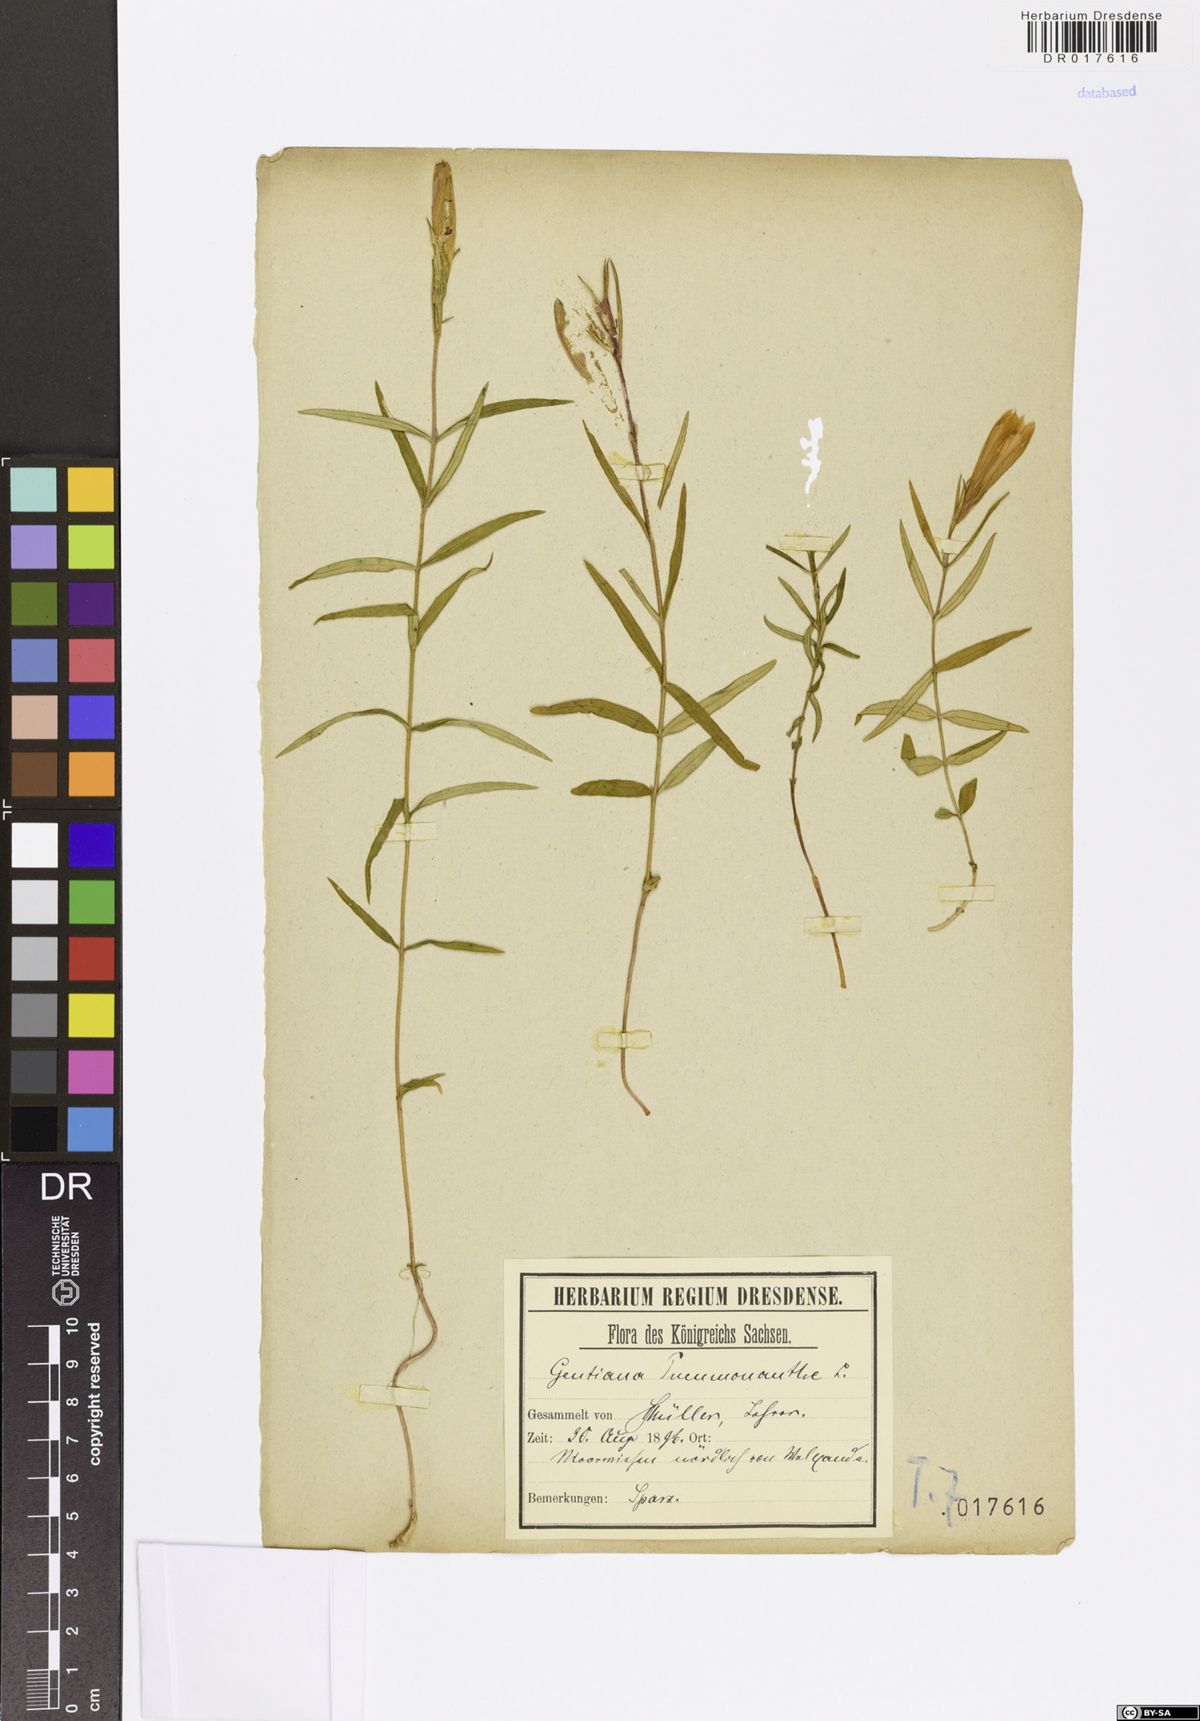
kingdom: Plantae
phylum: Tracheophyta
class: Magnoliopsida
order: Gentianales
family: Gentianaceae
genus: Gentiana
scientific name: Gentiana pneumonanthe
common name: Marsh gentian
